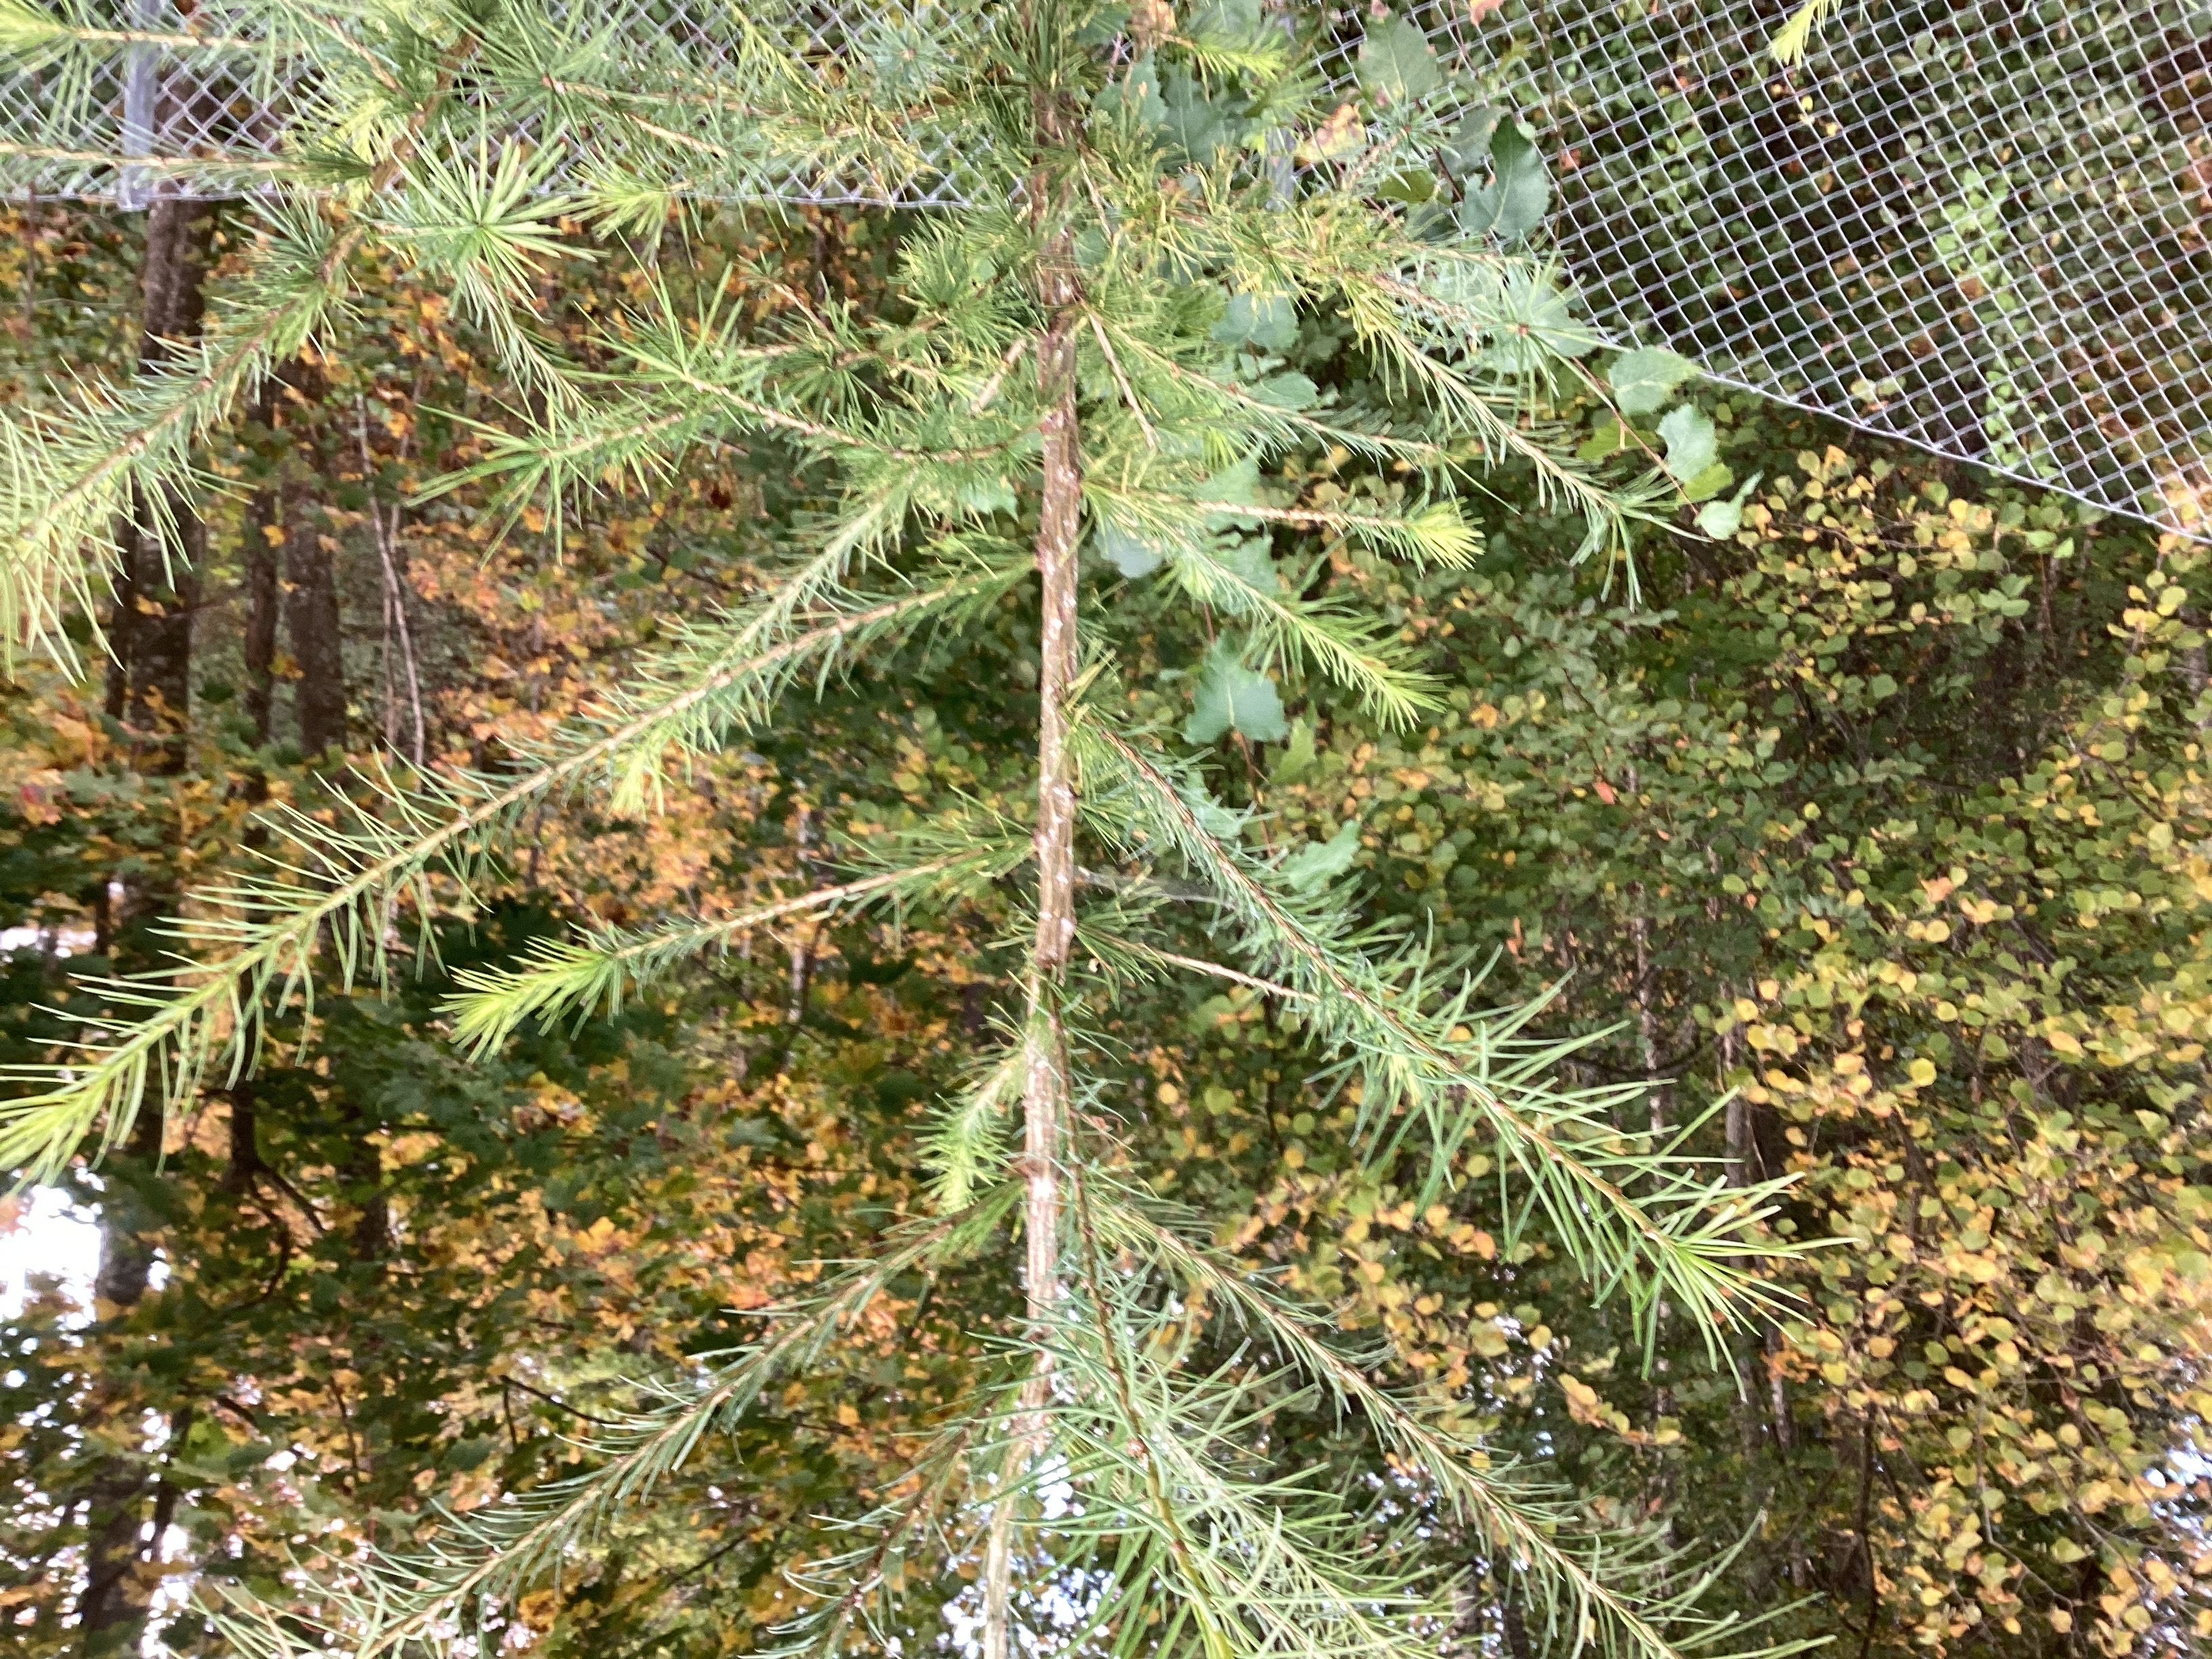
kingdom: Plantae
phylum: Tracheophyta
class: Pinopsida
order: Pinales
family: Pinaceae
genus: Larix
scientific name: Larix marschlinsii
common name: hybridlerk
